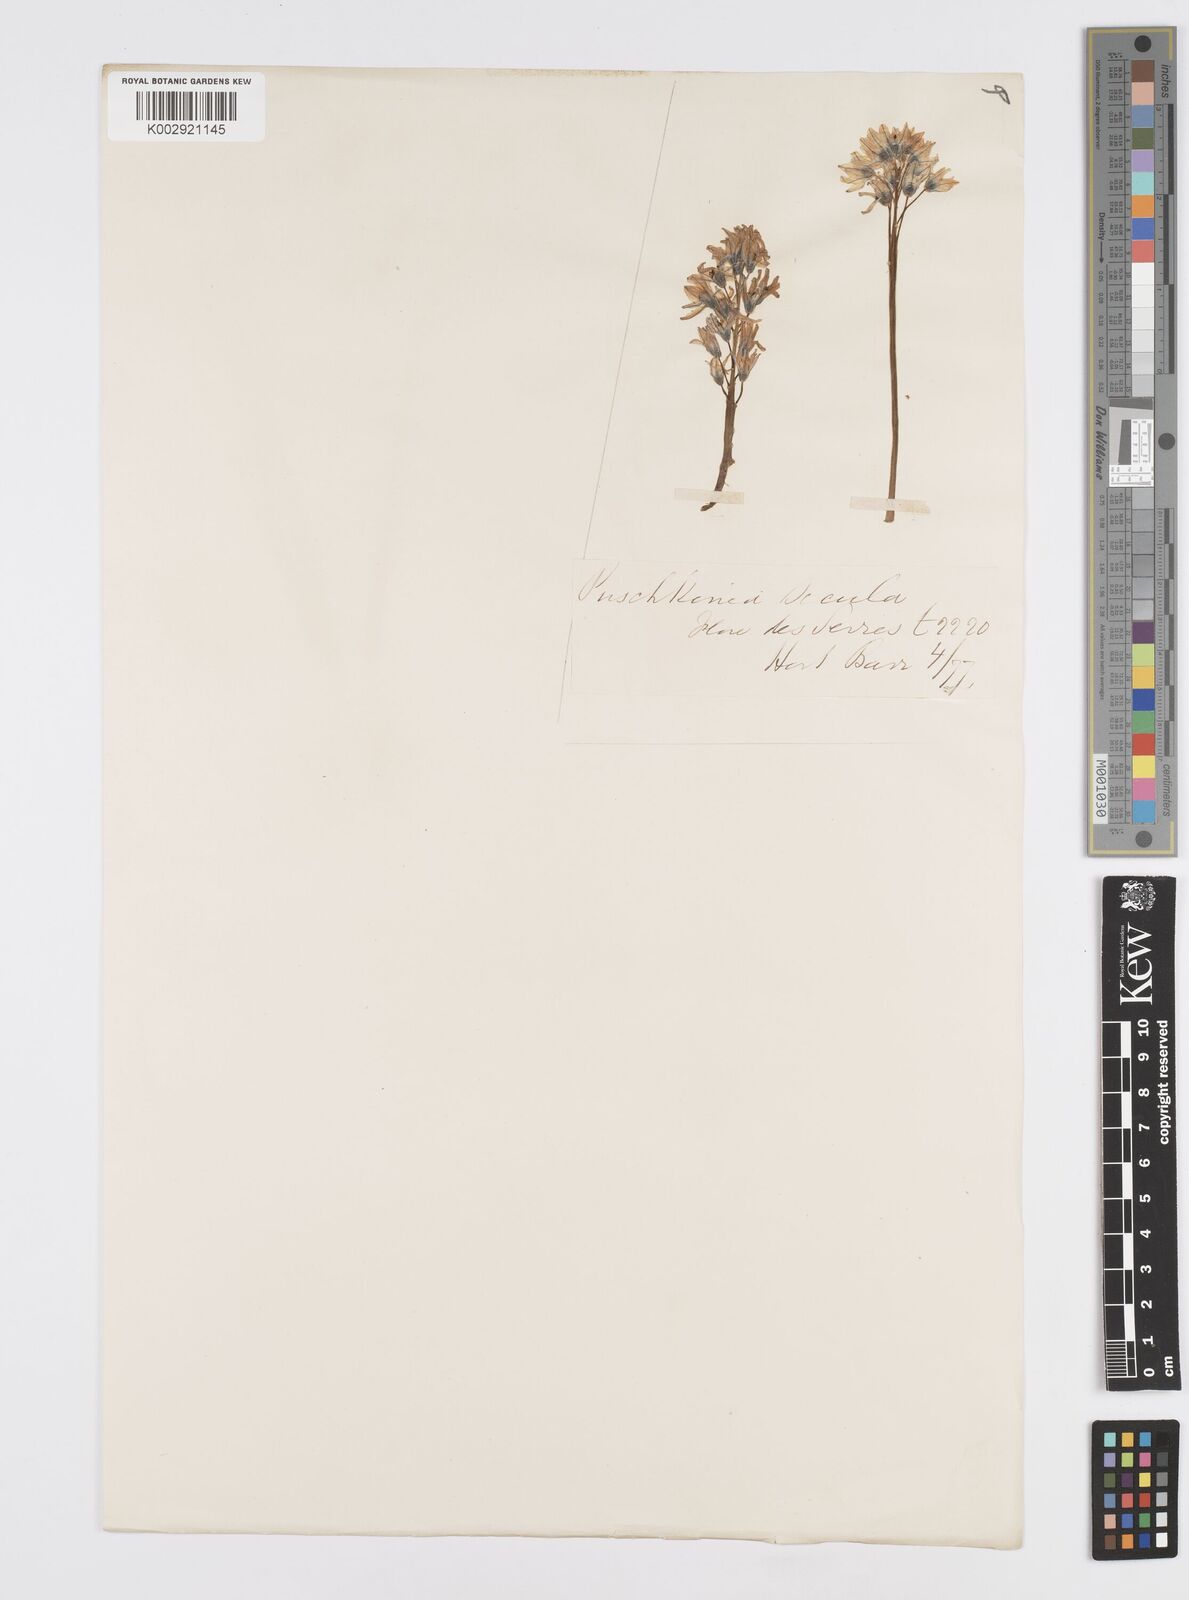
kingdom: Plantae
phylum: Tracheophyta
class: Liliopsida
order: Asparagales
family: Asparagaceae
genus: Puschkinia
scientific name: Puschkinia
